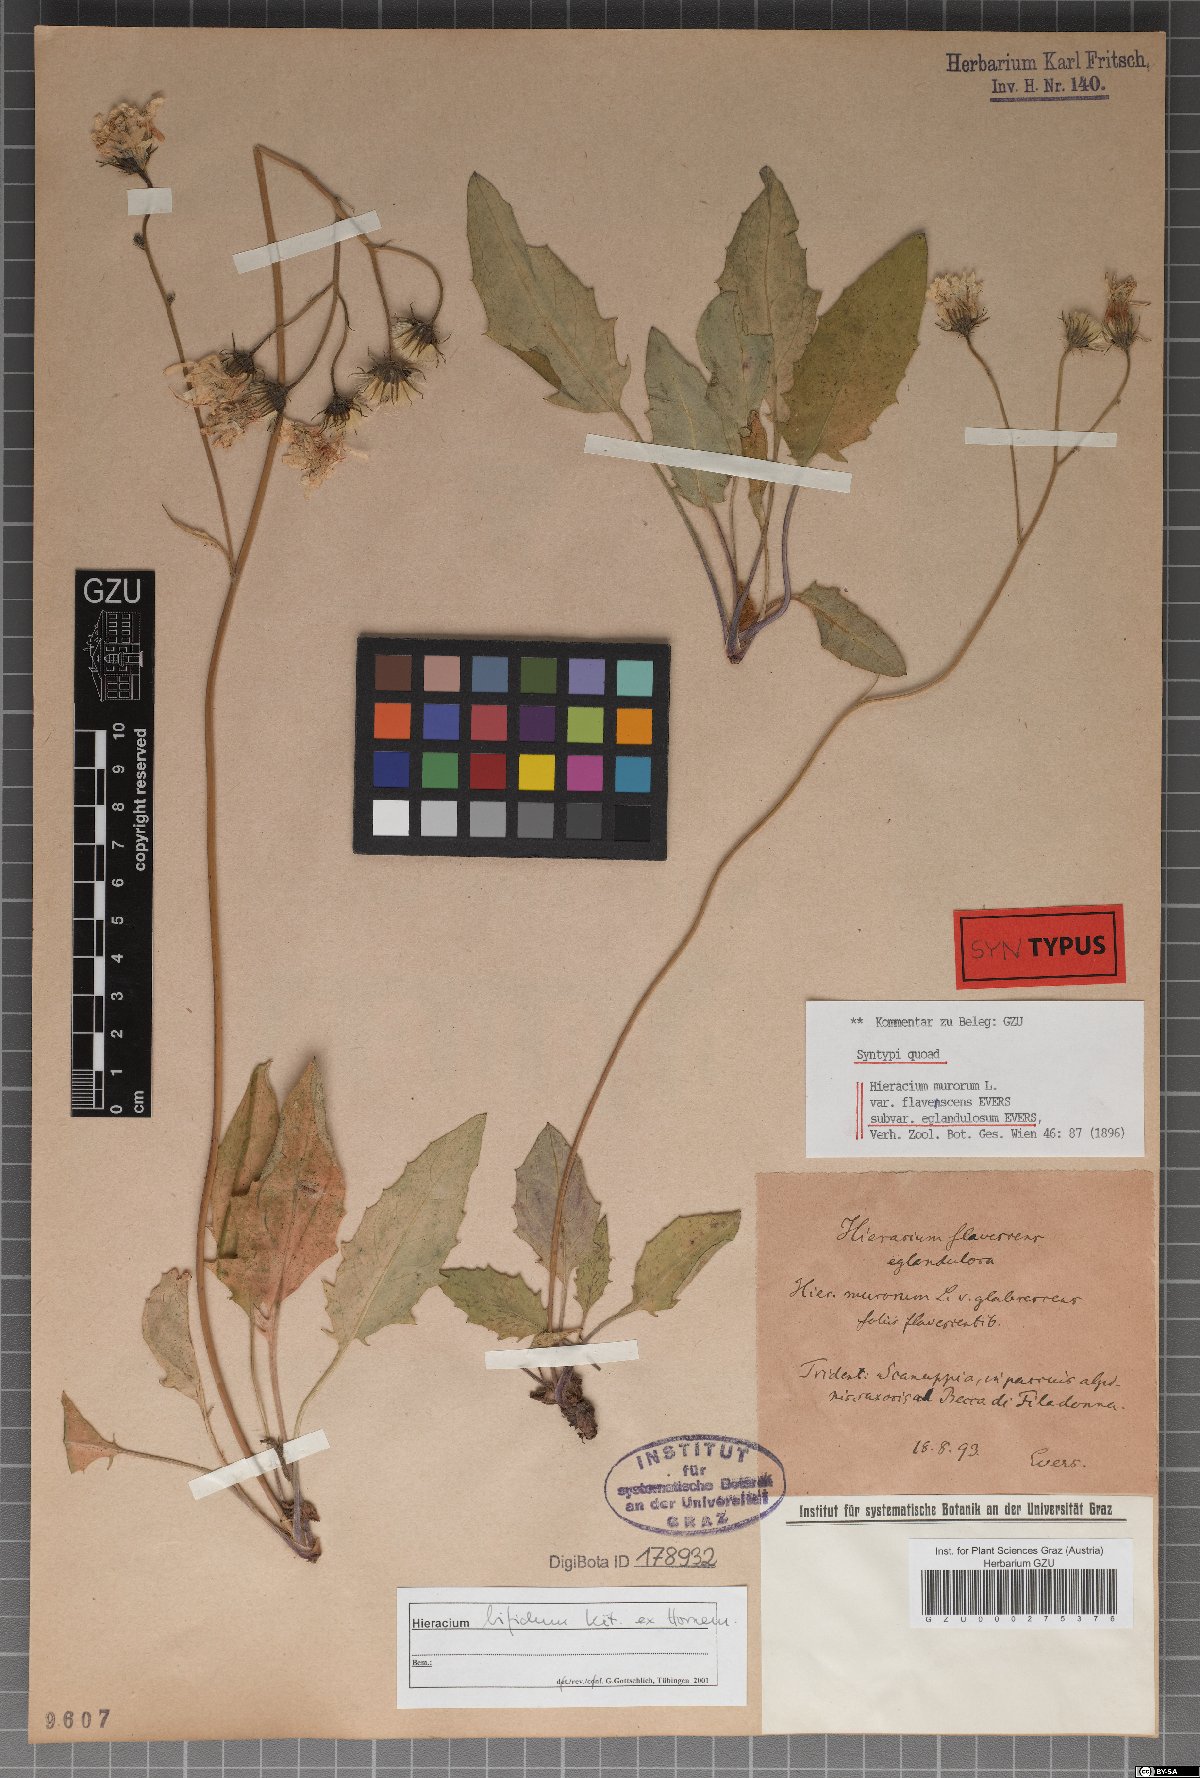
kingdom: Plantae
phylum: Tracheophyta
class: Magnoliopsida
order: Asterales
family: Asteraceae
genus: Hieracium
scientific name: Hieracium murorum
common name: Wall hawkweed
